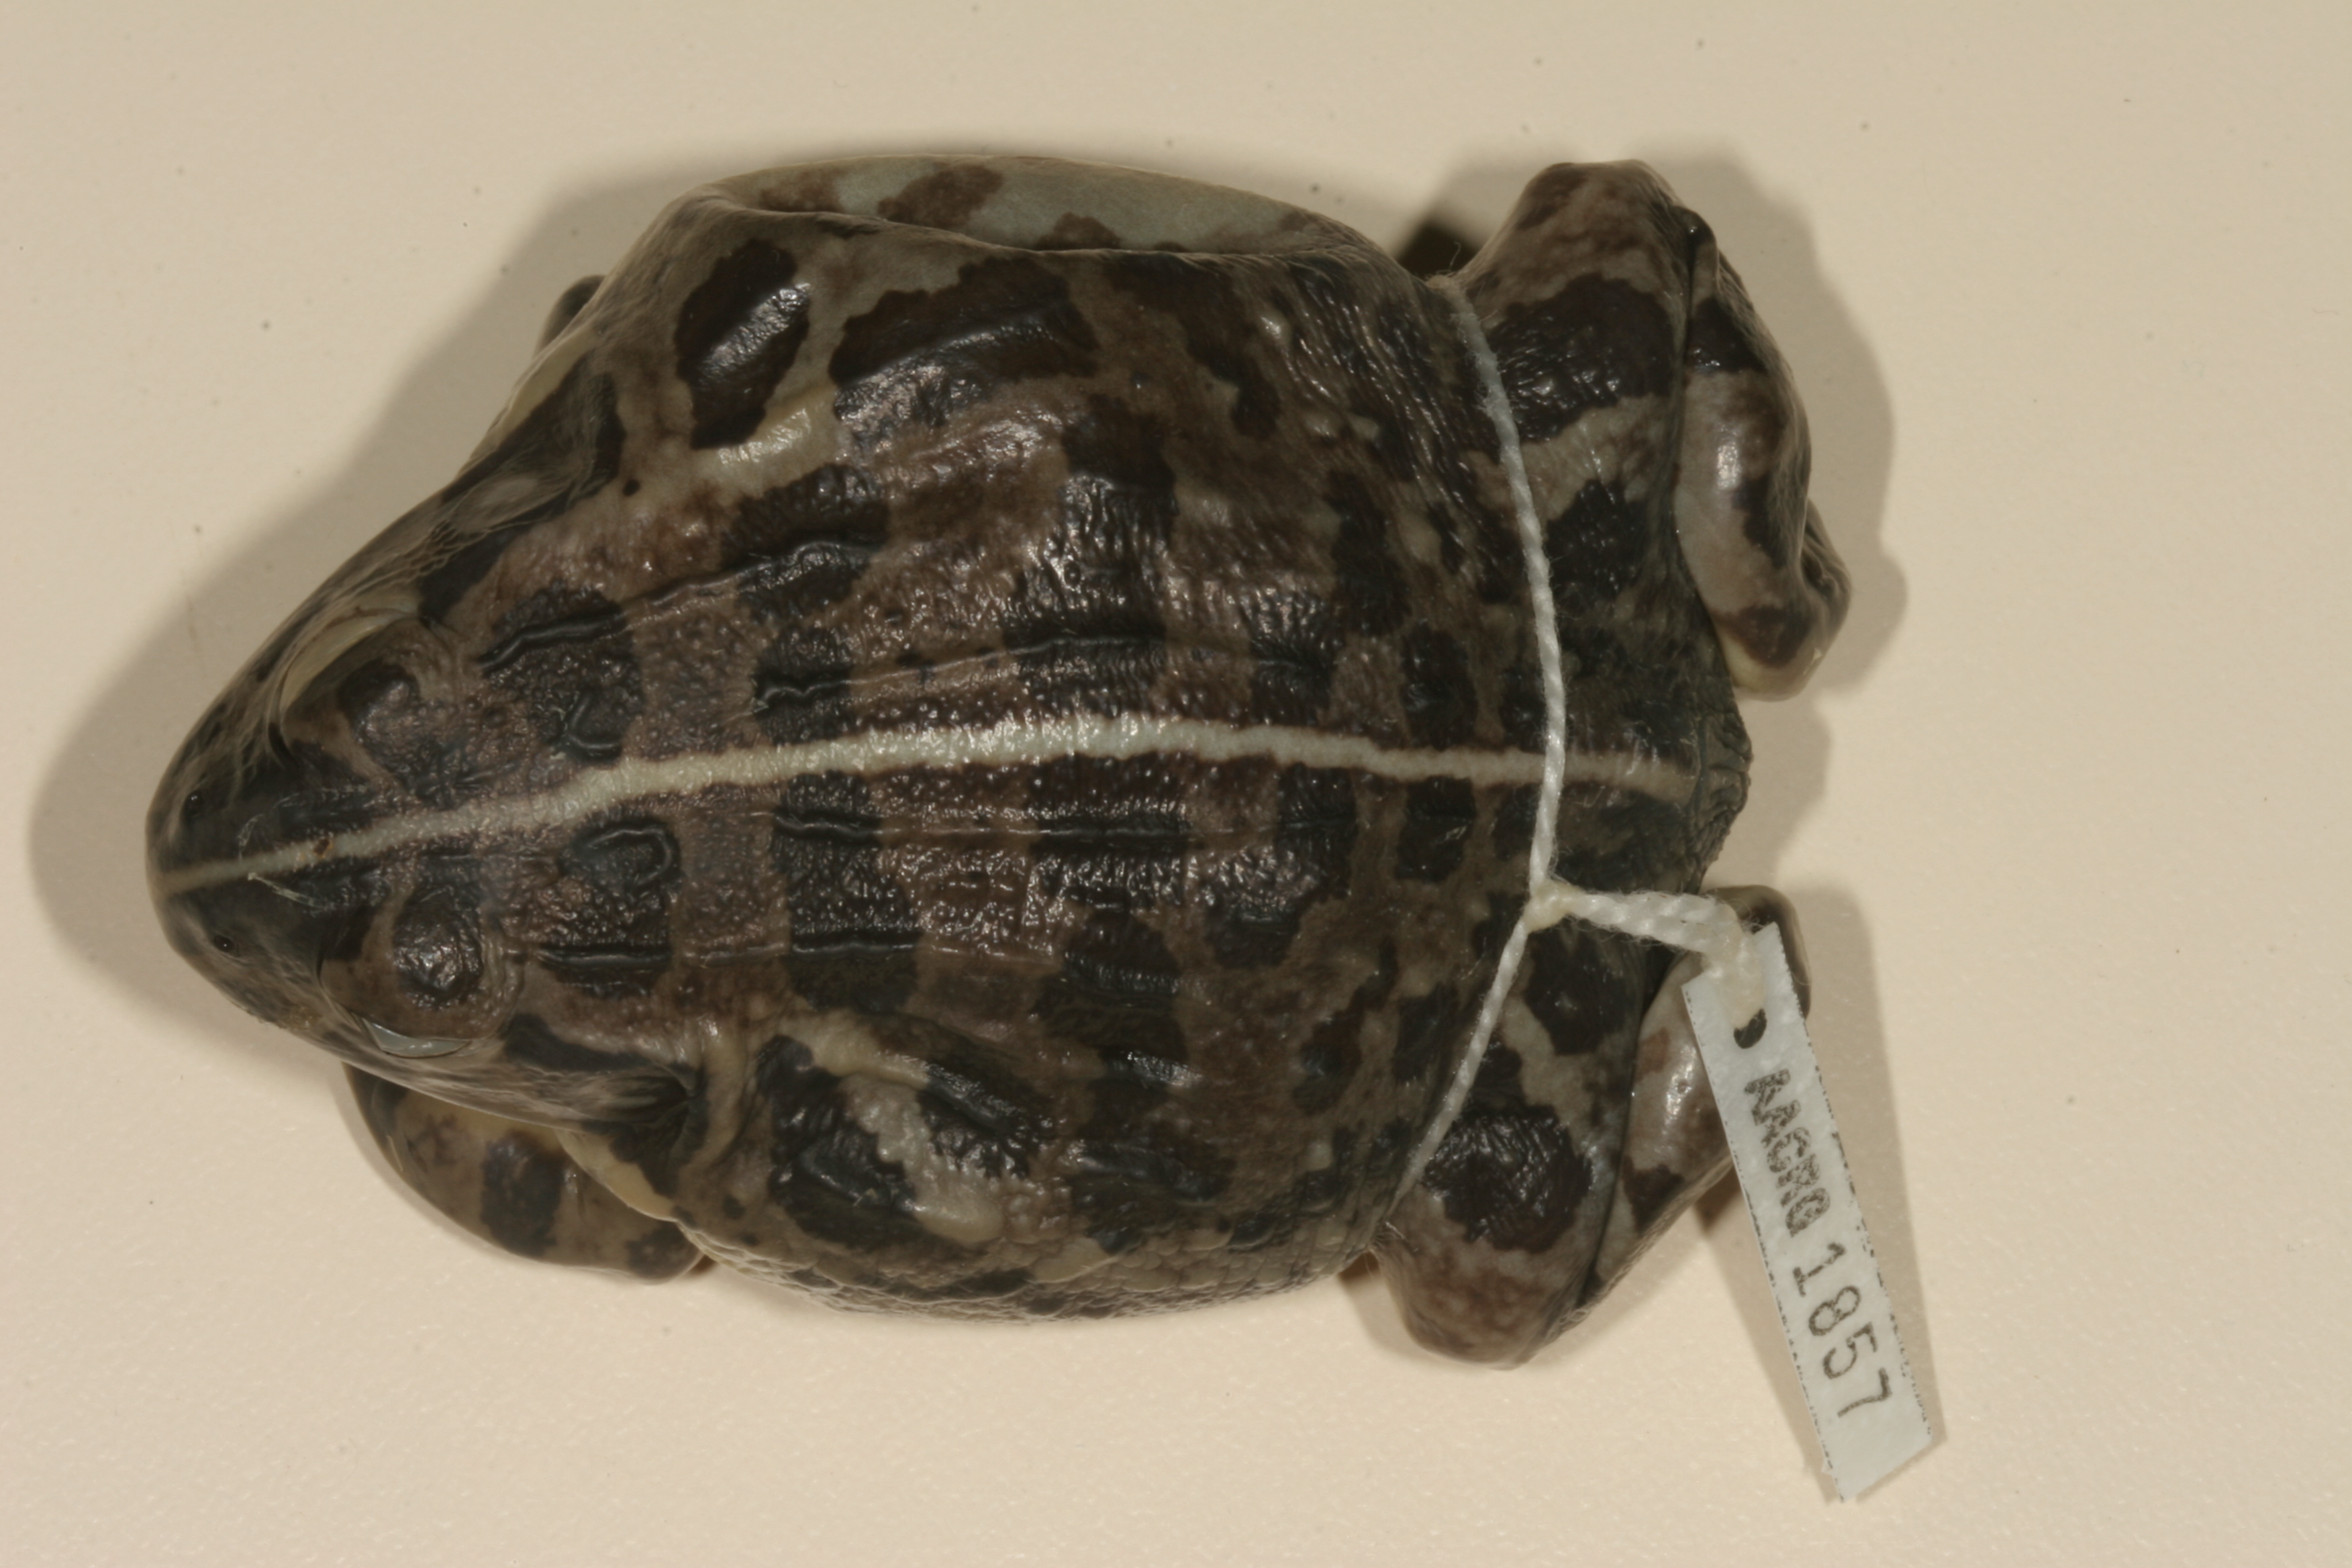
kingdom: Animalia
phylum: Chordata
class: Amphibia
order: Anura
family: Pyxicephalidae
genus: Pyxicephalus
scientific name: Pyxicephalus edulis
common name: Peter's bullfrog
